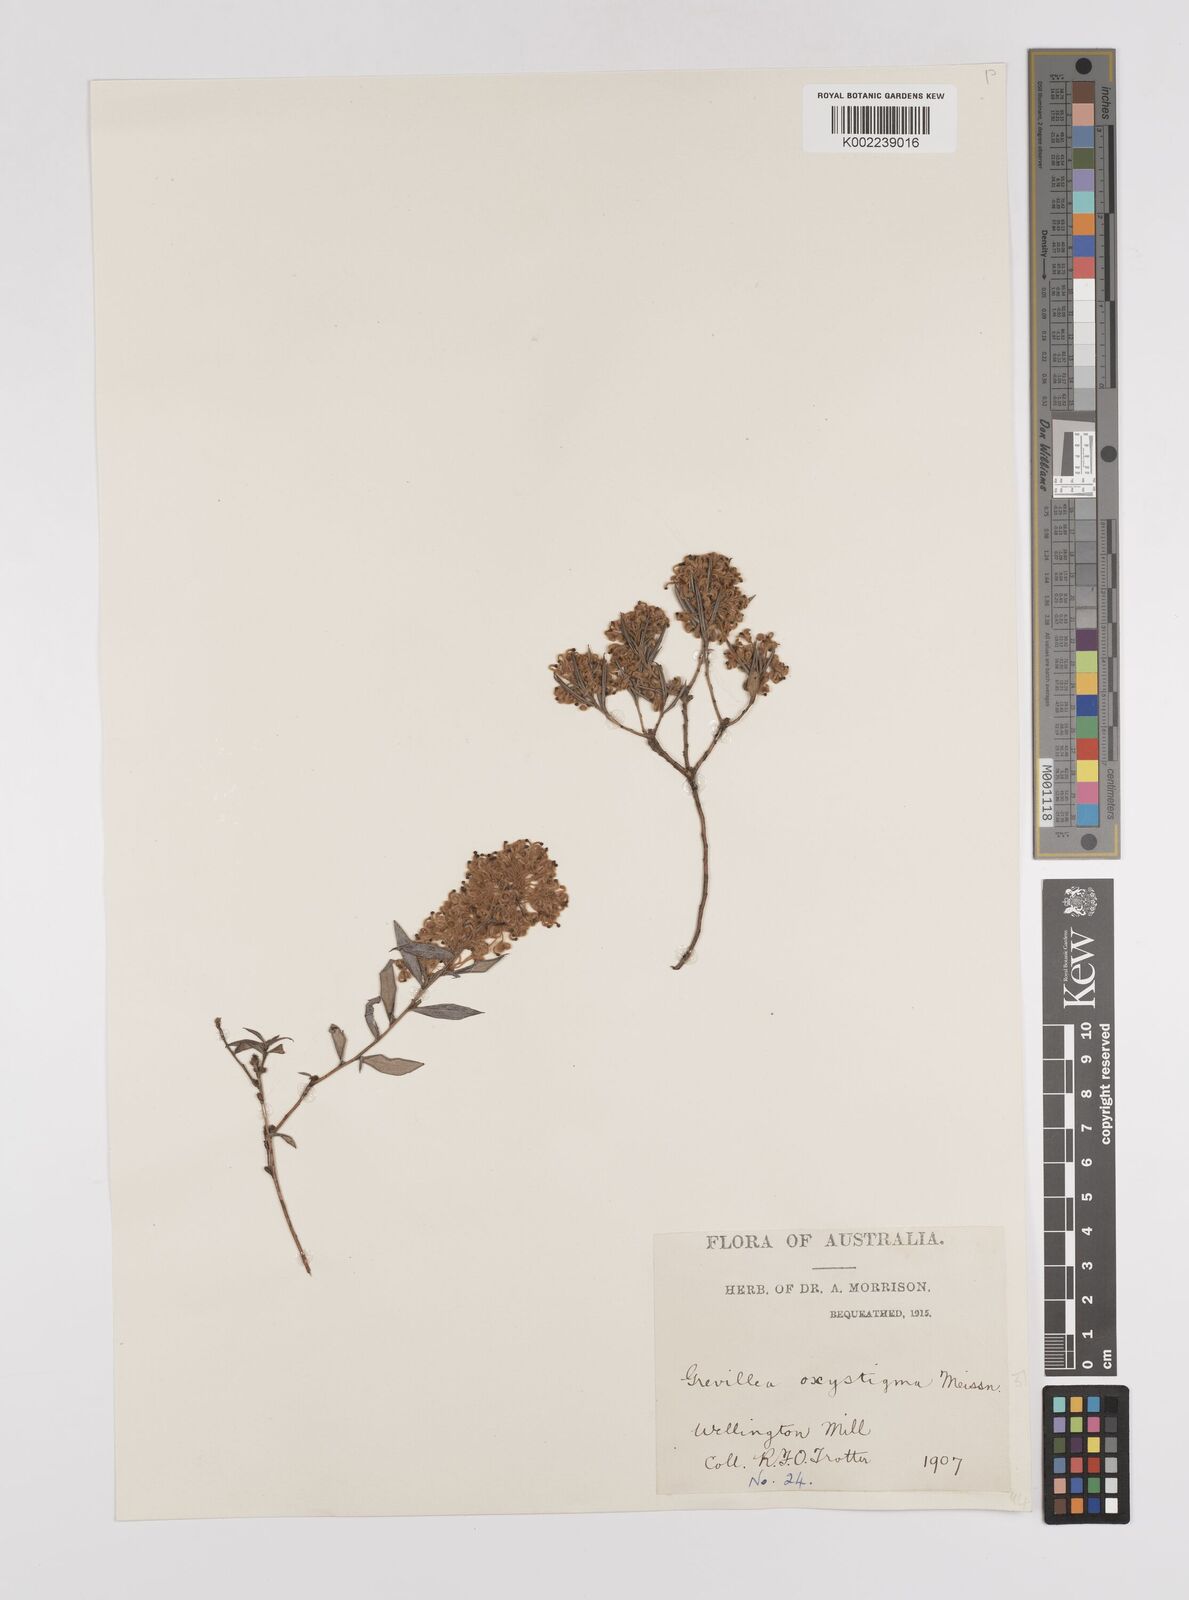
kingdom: Plantae
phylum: Tracheophyta
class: Magnoliopsida
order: Proteales
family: Proteaceae
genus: Grevillea
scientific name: Grevillea pilulifera
